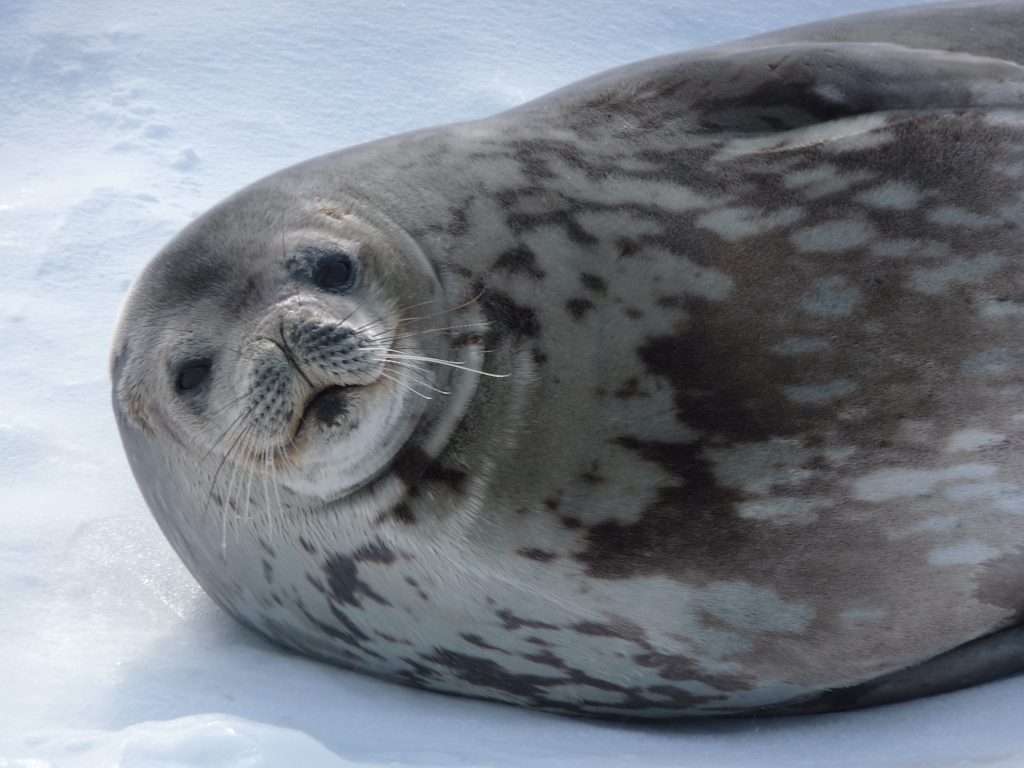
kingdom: Animalia
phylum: Chordata
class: Mammalia
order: Carnivora
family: Phocidae
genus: Leptonychotes
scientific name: Leptonychotes weddellii
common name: Weddell Seal
